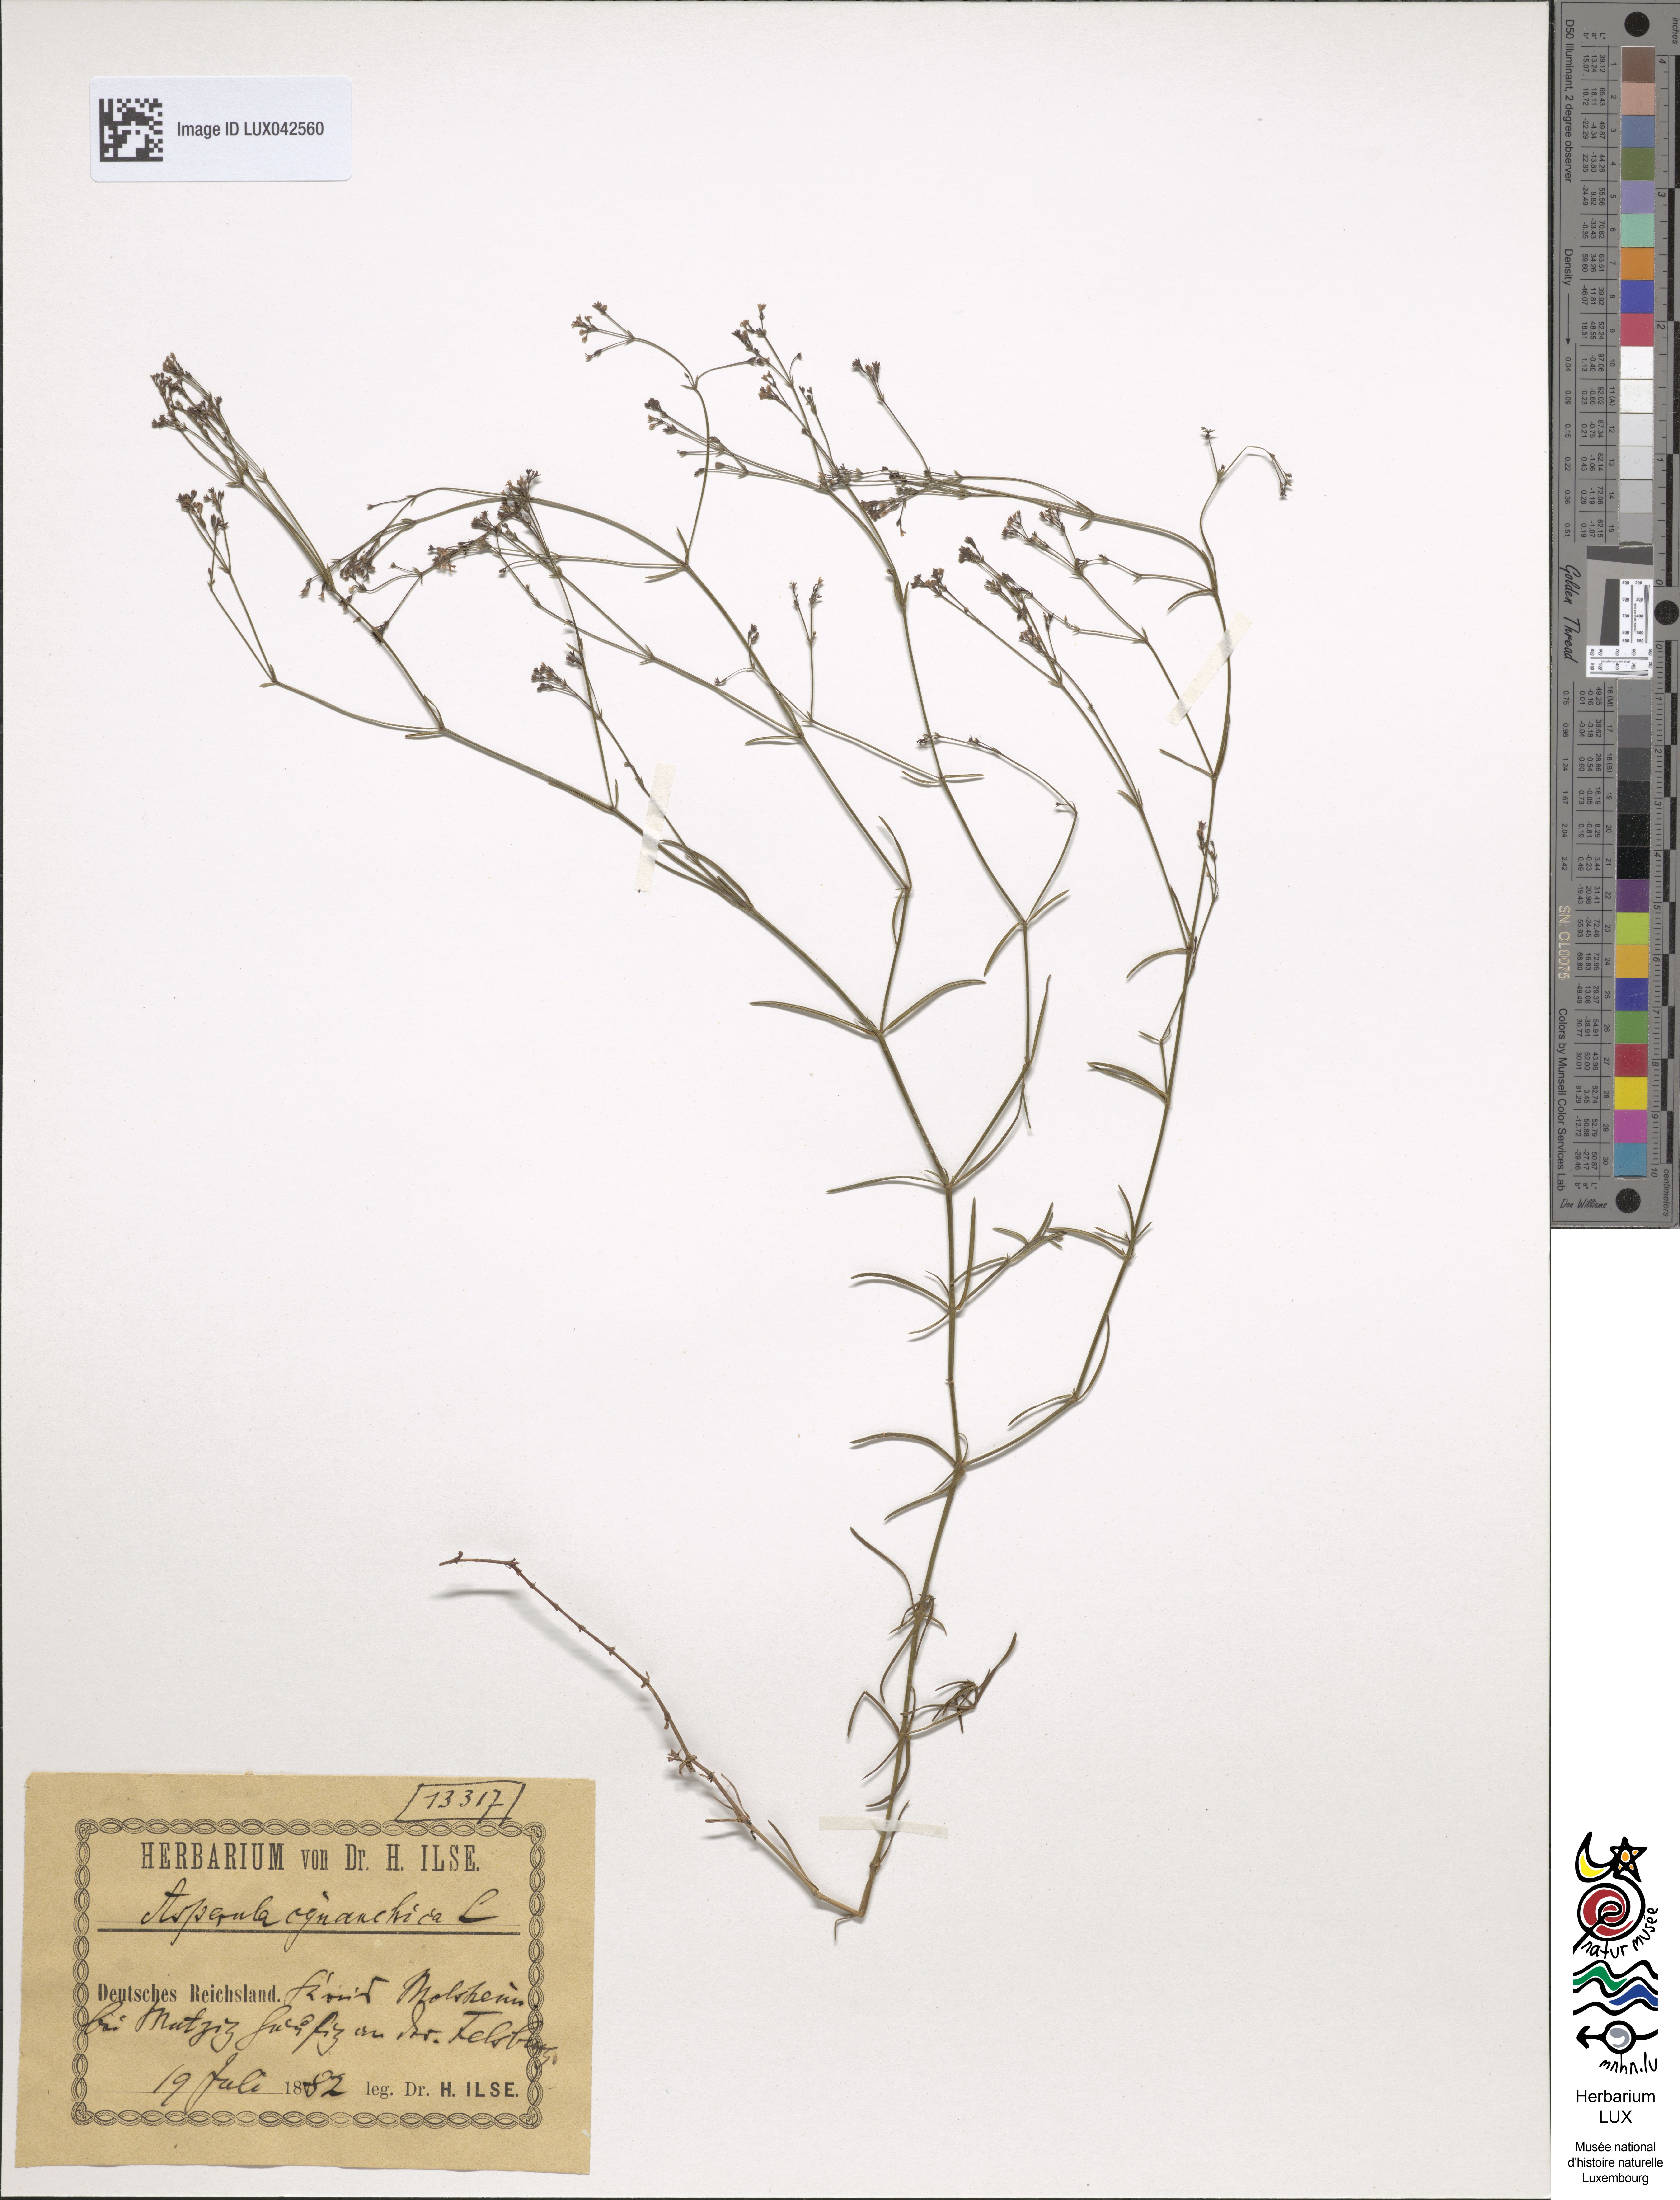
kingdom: Plantae
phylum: Tracheophyta
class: Magnoliopsida
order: Gentianales
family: Rubiaceae
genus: Cynanchica
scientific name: Cynanchica pyrenaica
